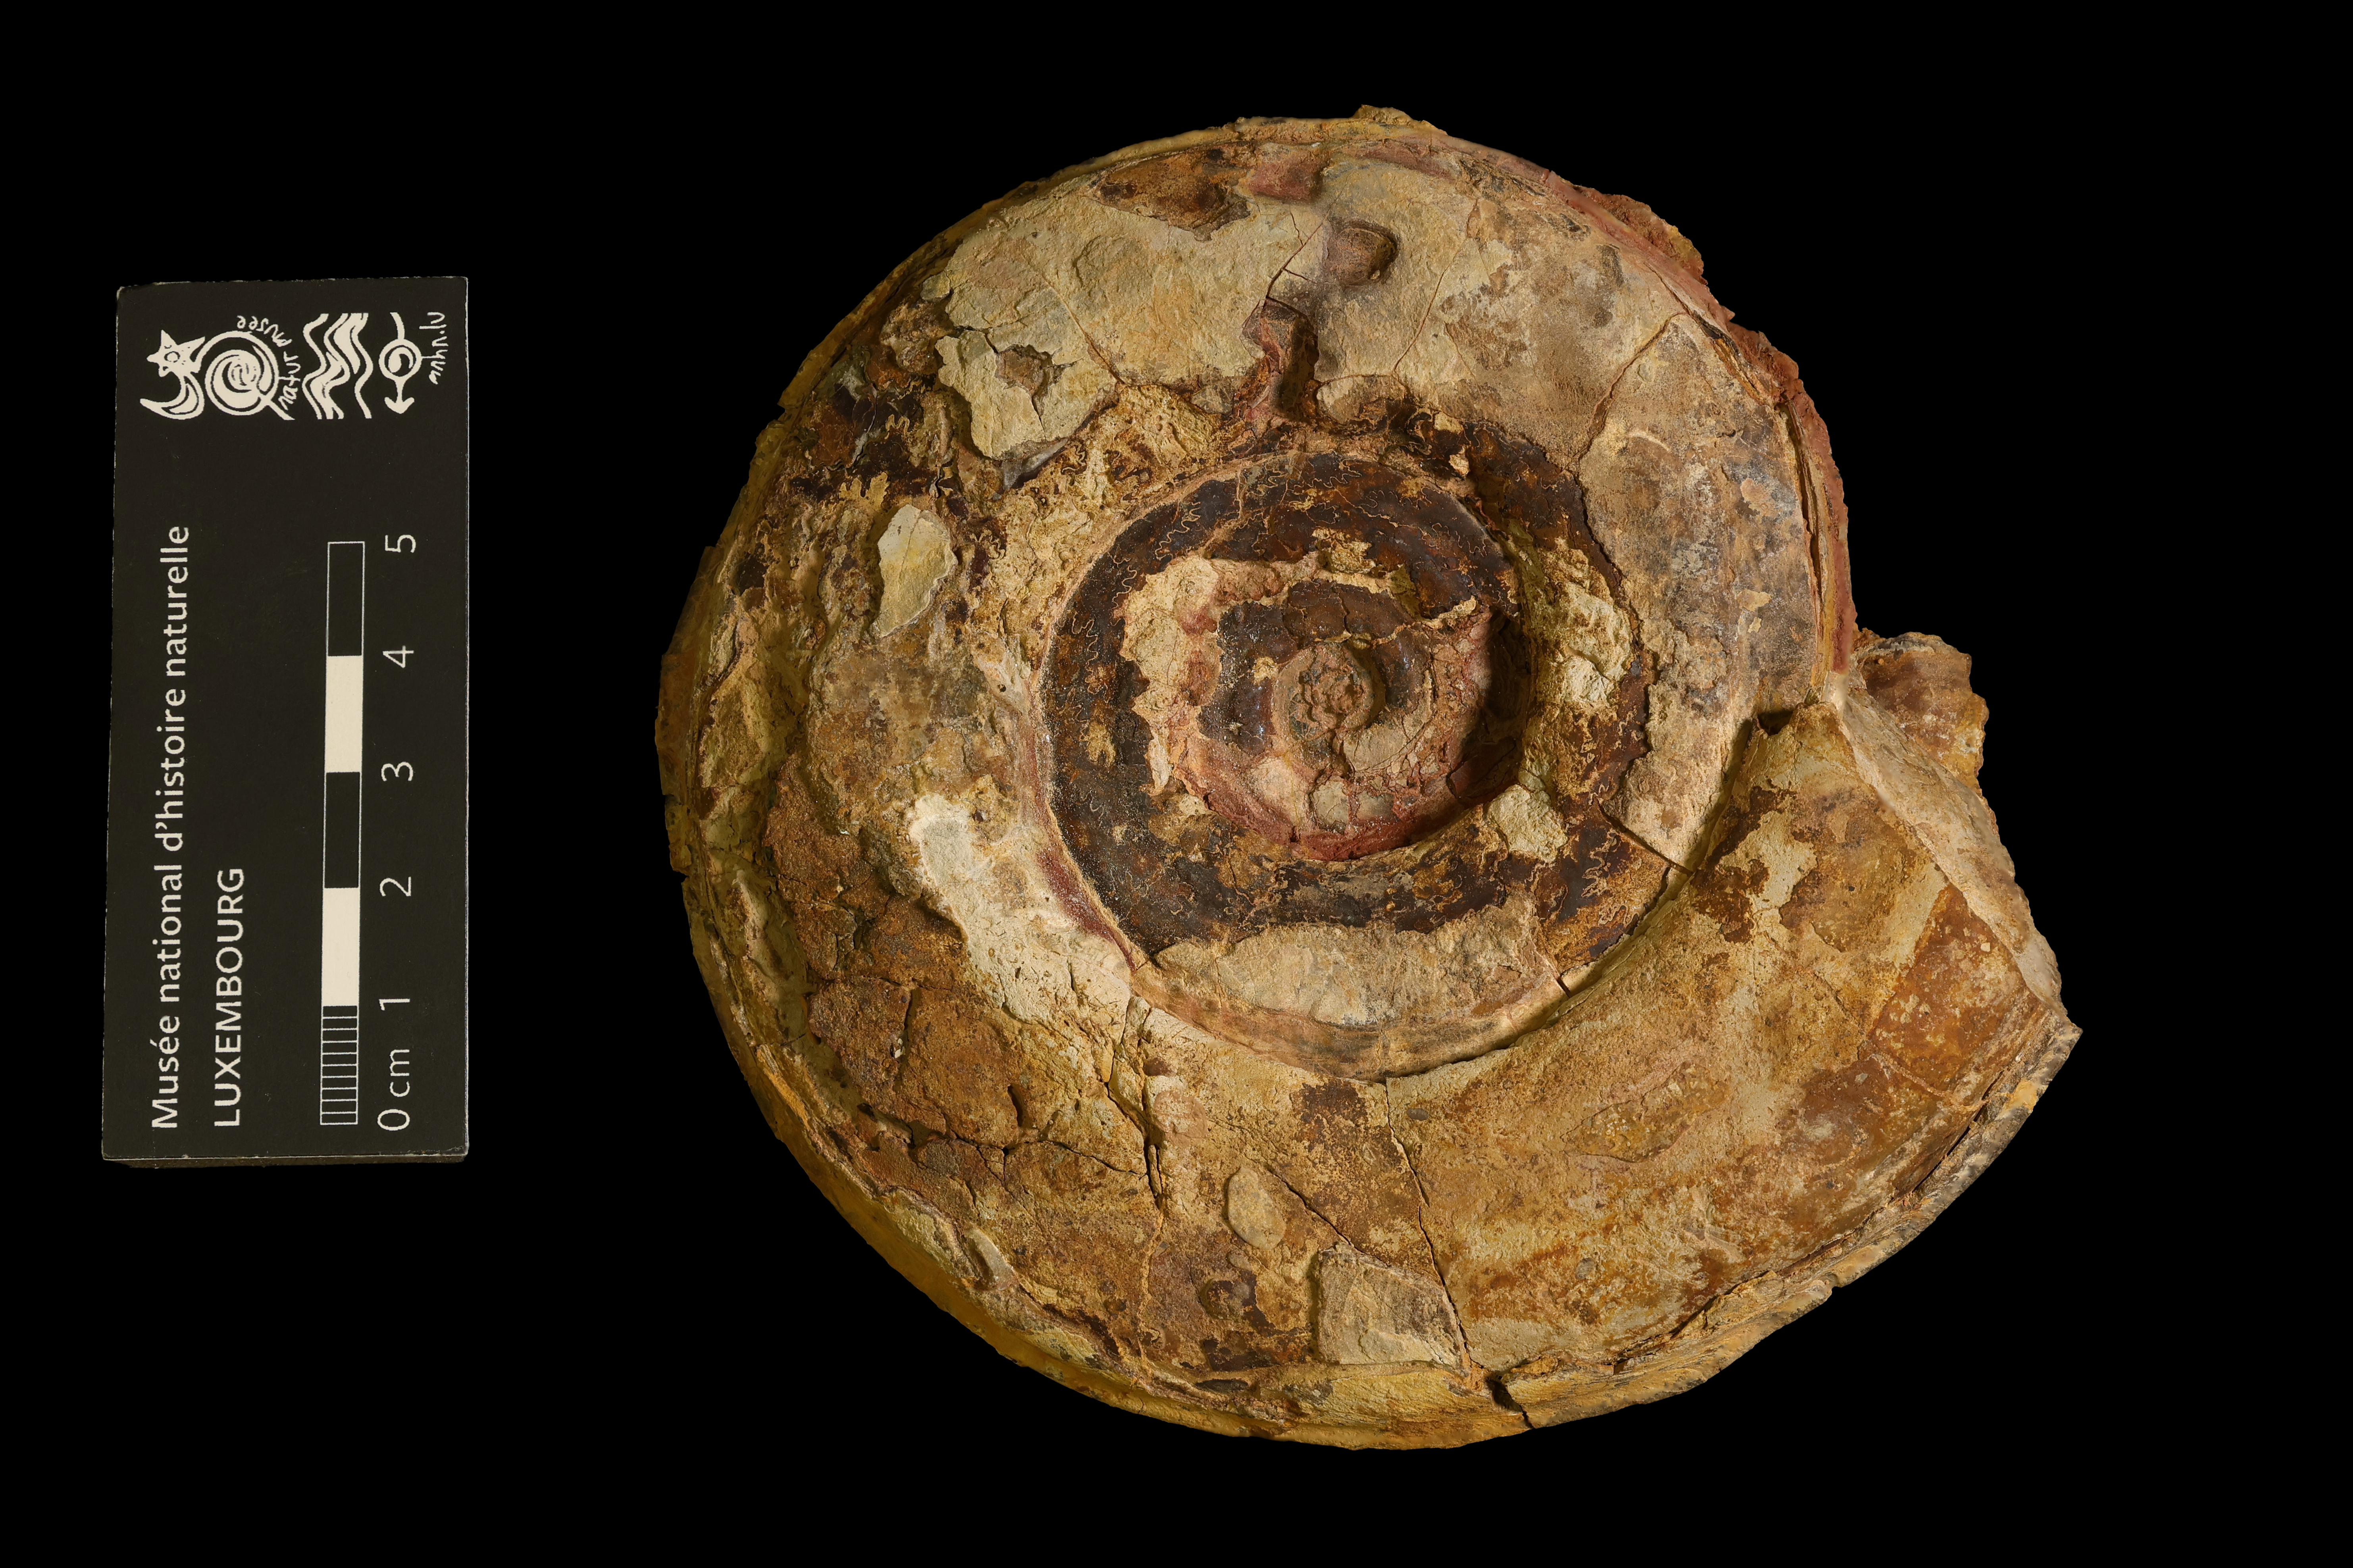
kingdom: Animalia
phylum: Mollusca
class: Cephalopoda
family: Hildoceratidae
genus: Hildoceras
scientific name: Hildoceras semipolitum
